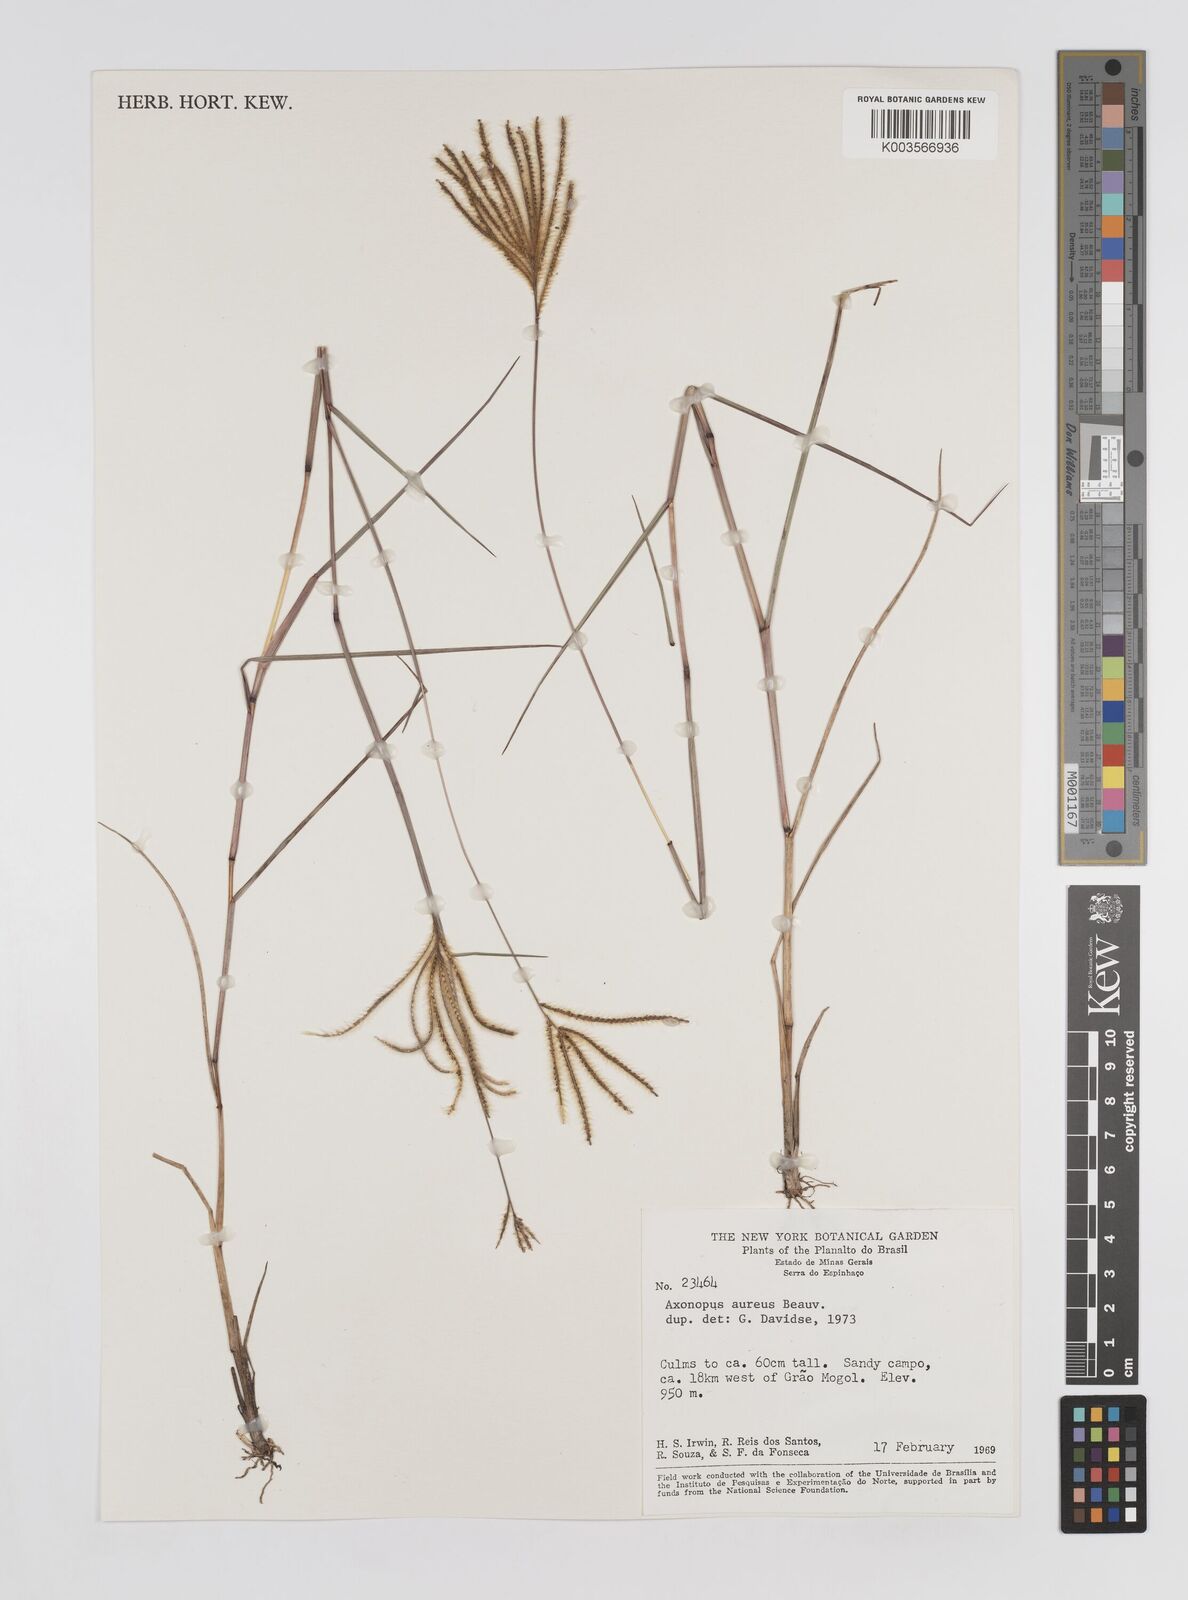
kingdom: Plantae
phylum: Tracheophyta
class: Liliopsida
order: Poales
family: Poaceae
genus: Axonopus
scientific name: Axonopus aureus
